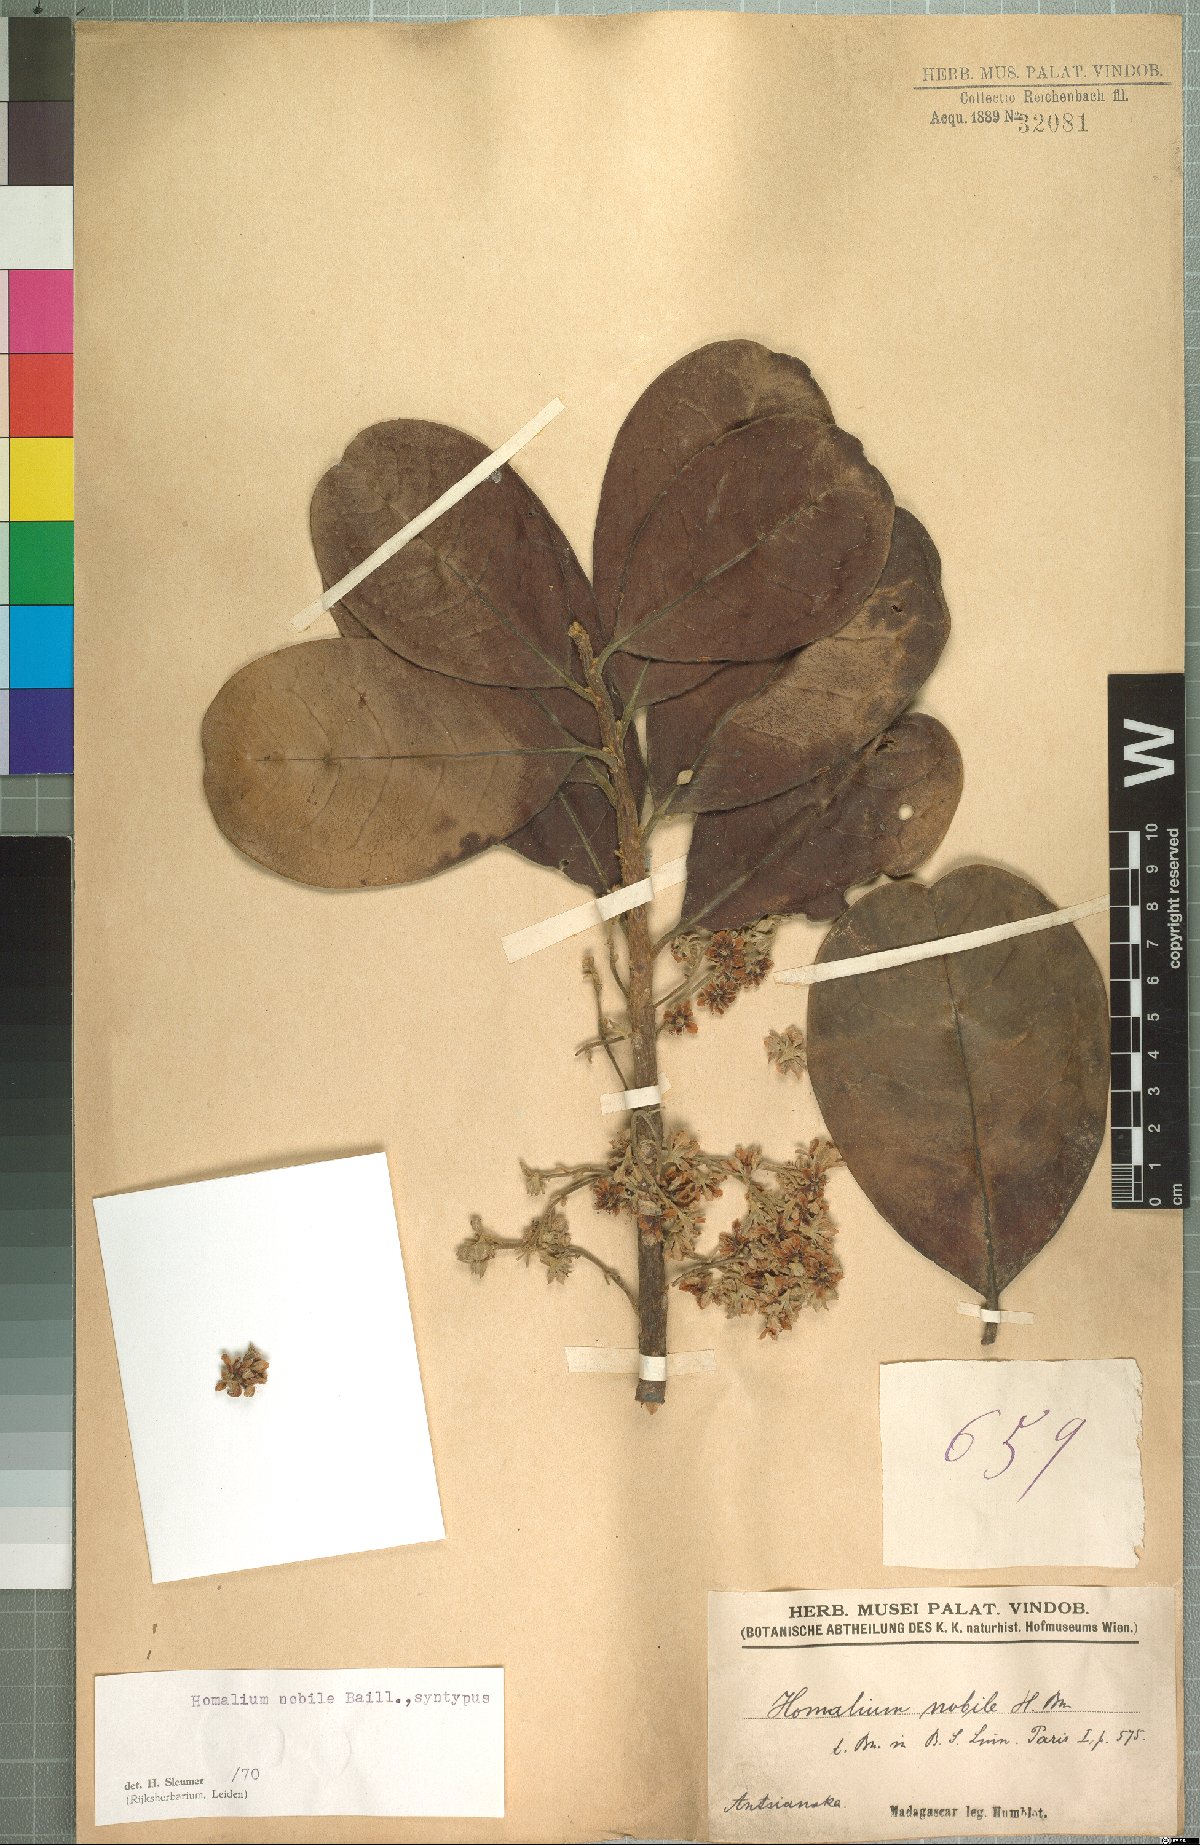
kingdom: Plantae
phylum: Tracheophyta
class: Magnoliopsida
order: Malpighiales
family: Salicaceae
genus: Homalium
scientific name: Homalium nobile
